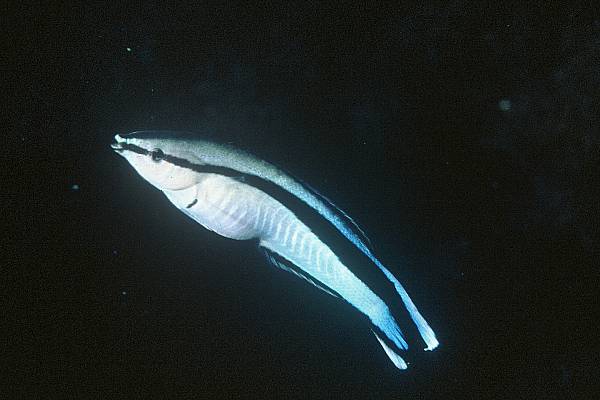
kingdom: Animalia
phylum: Chordata
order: Perciformes
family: Labridae
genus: Labroides
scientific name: Labroides dimidiatus
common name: Blue diesel wrasse
